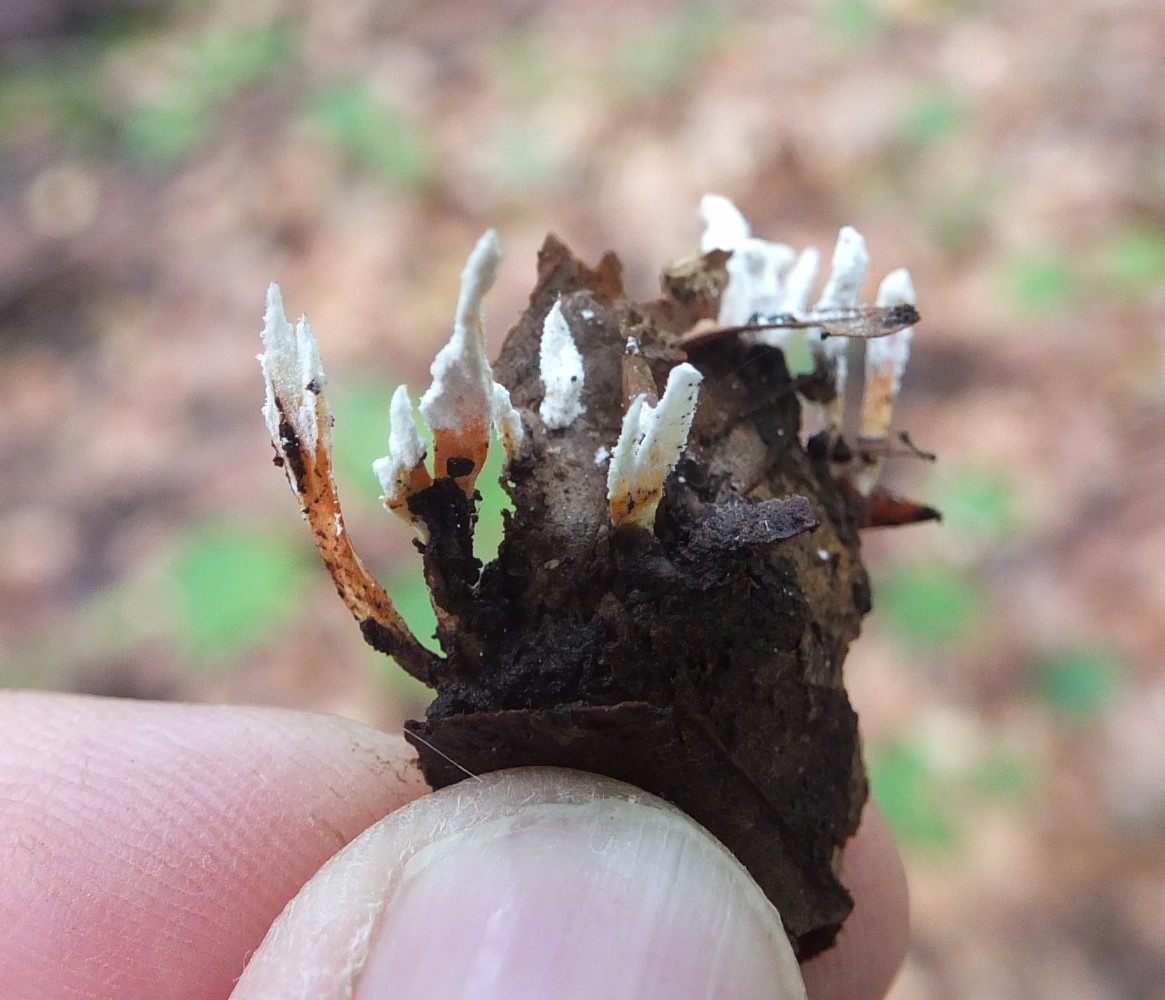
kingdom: Fungi
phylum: Ascomycota
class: Sordariomycetes
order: Hypocreales
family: Cordycipitaceae
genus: Cordyceps
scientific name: Cordyceps farinosa
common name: melet snyltekølle
